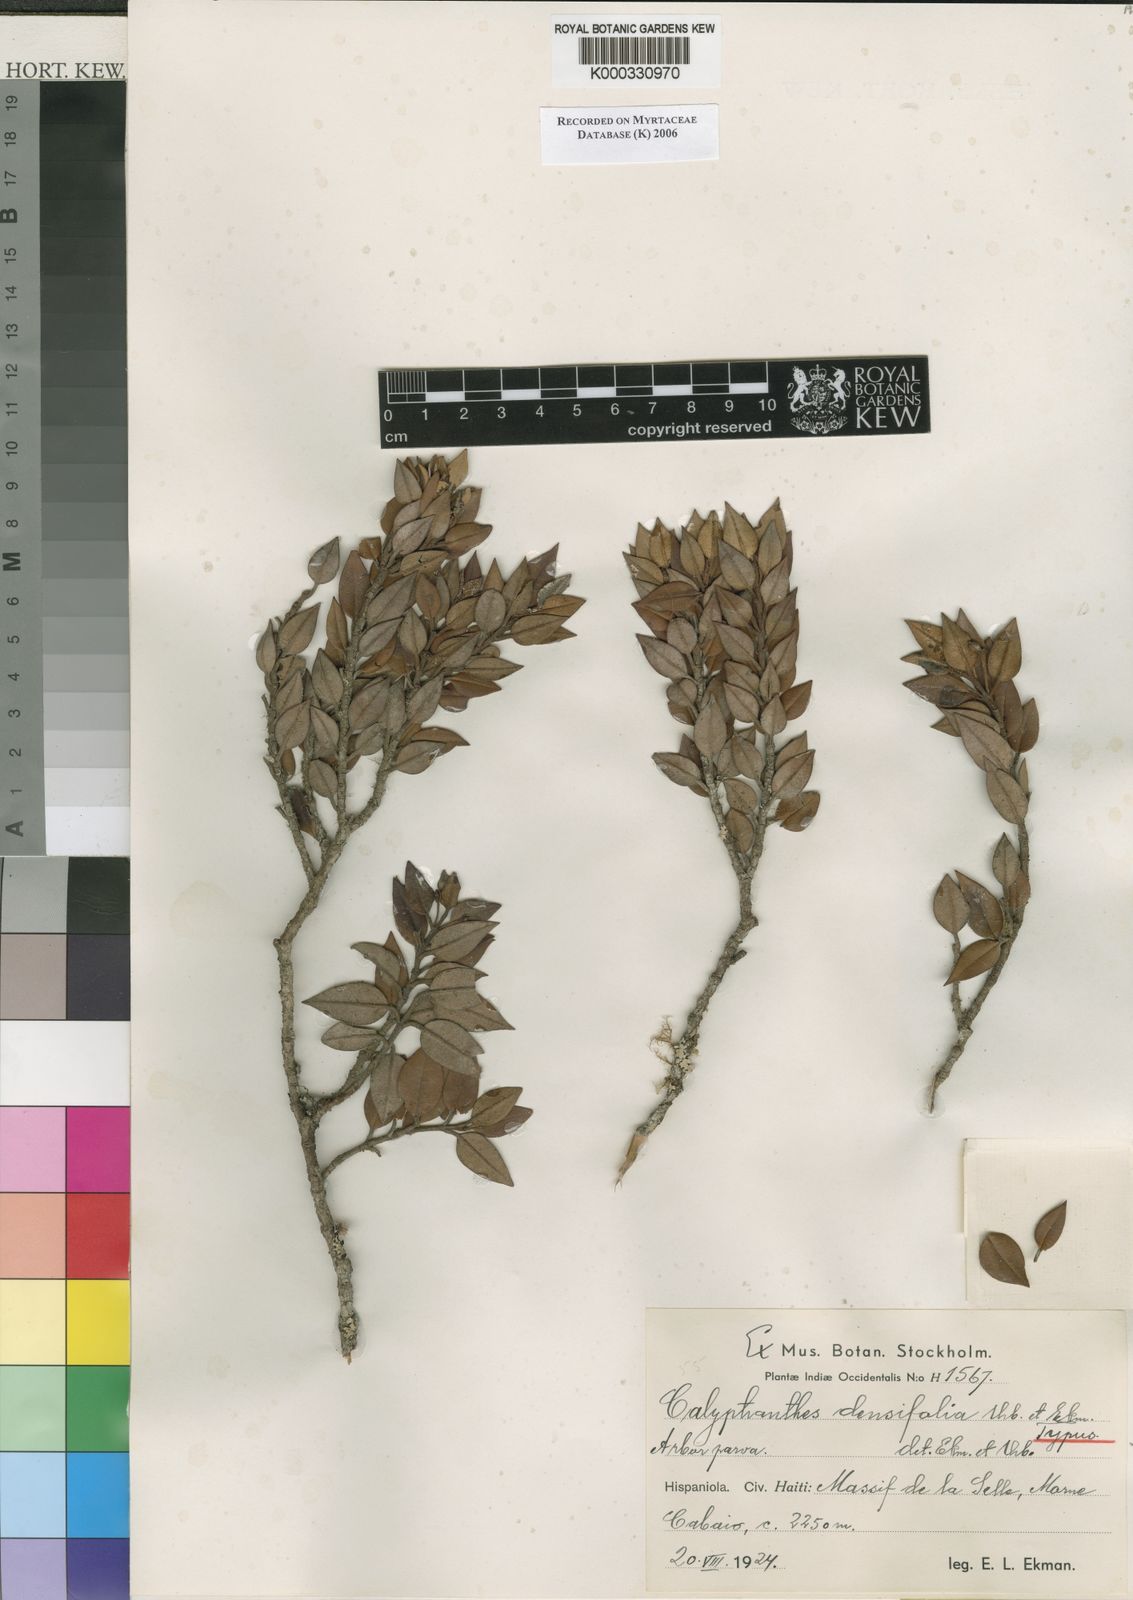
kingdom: Plantae
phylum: Tracheophyta
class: Magnoliopsida
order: Myrtales
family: Myrtaceae
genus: Myrcia
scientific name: Myrcia densifolia
